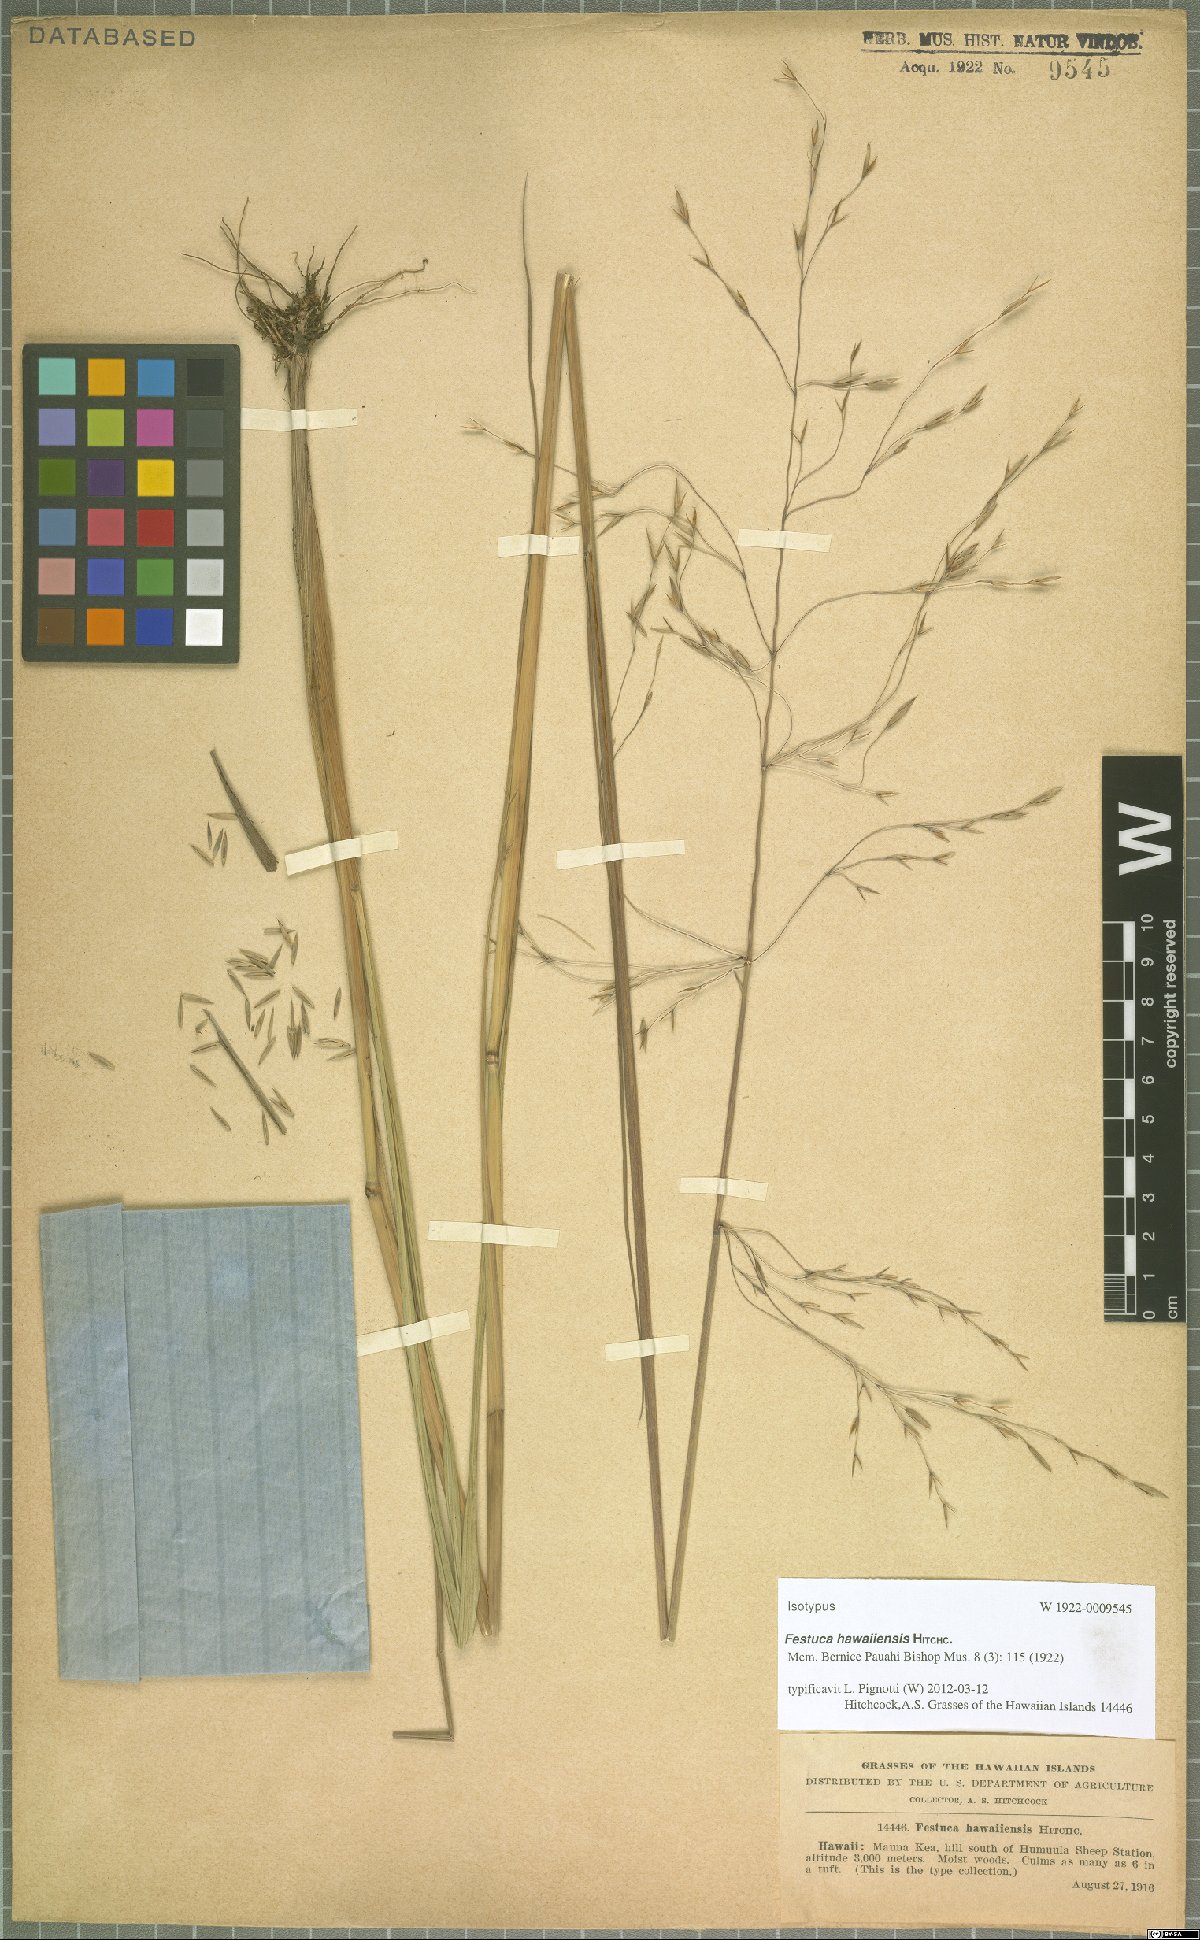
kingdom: Plantae
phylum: Tracheophyta
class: Liliopsida
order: Poales
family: Poaceae
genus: Festuca
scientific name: Festuca hawaiiensis
